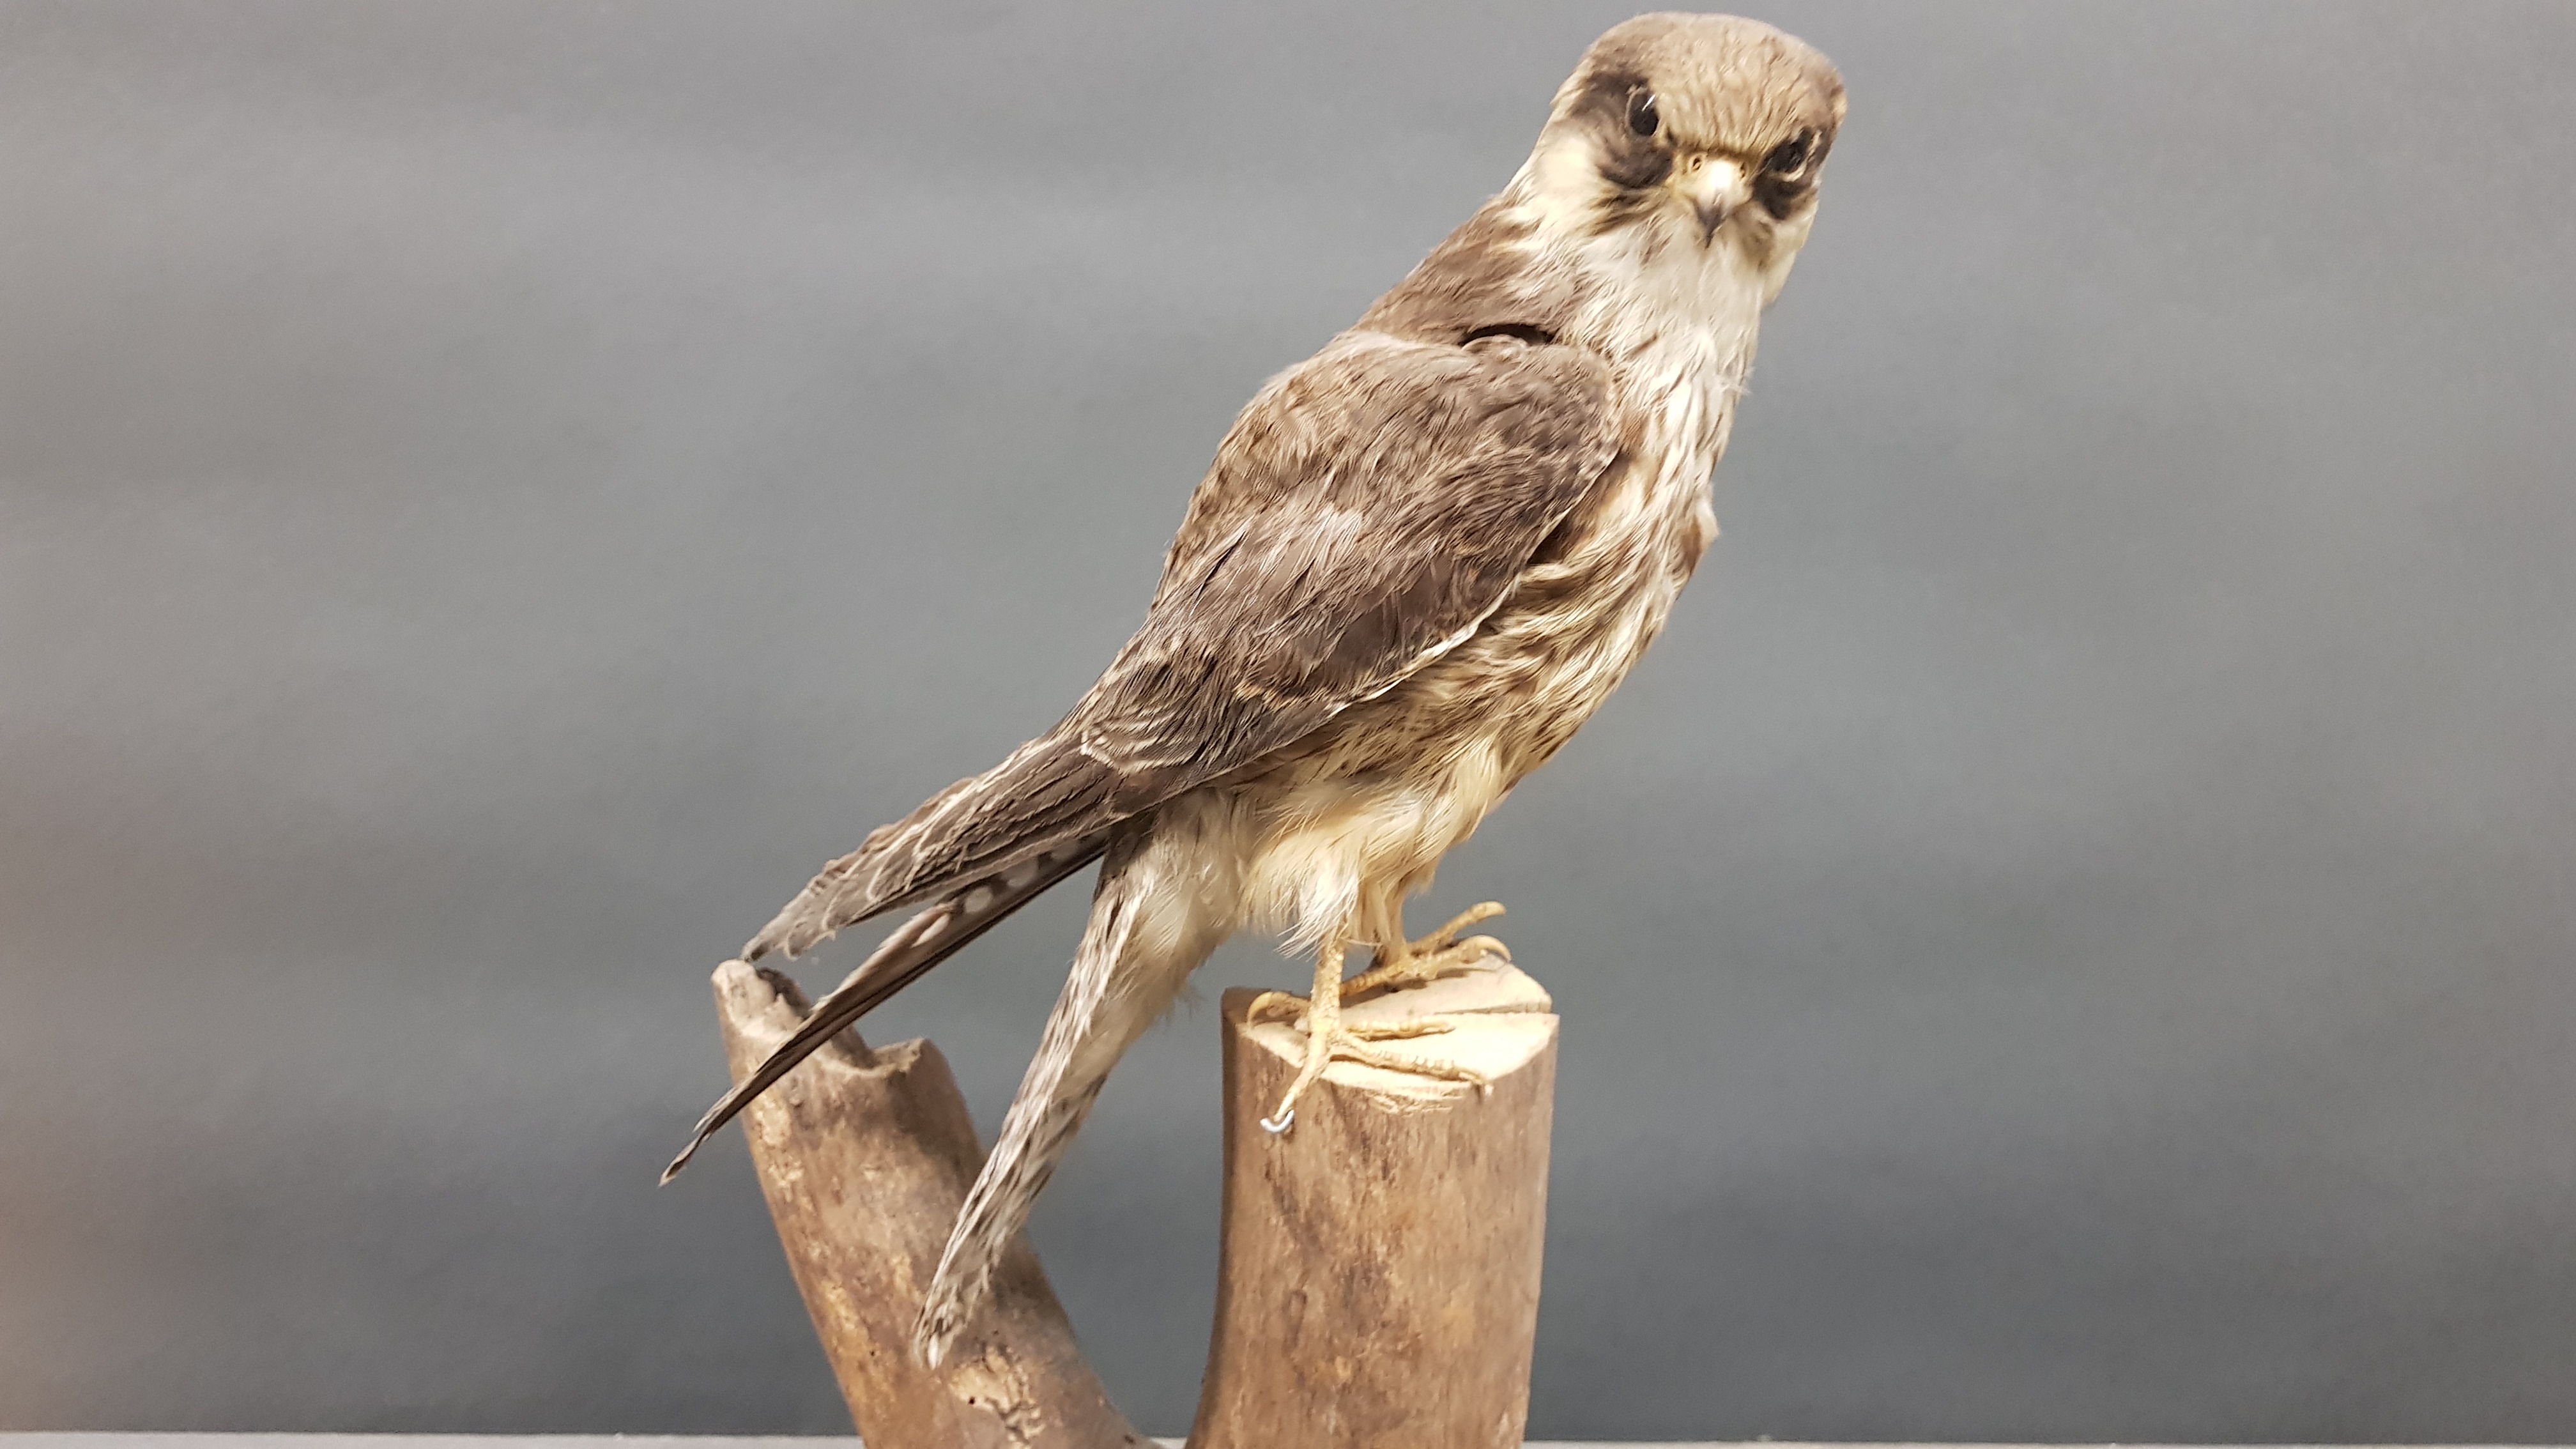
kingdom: Animalia
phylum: Chordata
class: Aves
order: Falconiformes
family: Falconidae
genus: Falco
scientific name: Falco columbarius
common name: Merlin
